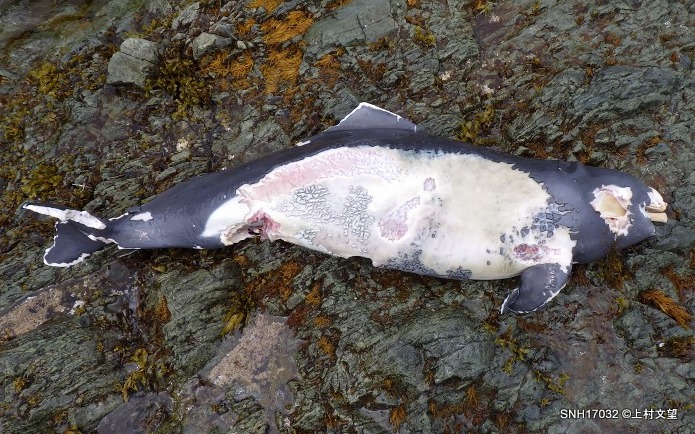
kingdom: Animalia
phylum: Chordata
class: Mammalia
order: Cetacea
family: Phocoenidae
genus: Phocoenoides
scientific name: Phocoenoides dalli
